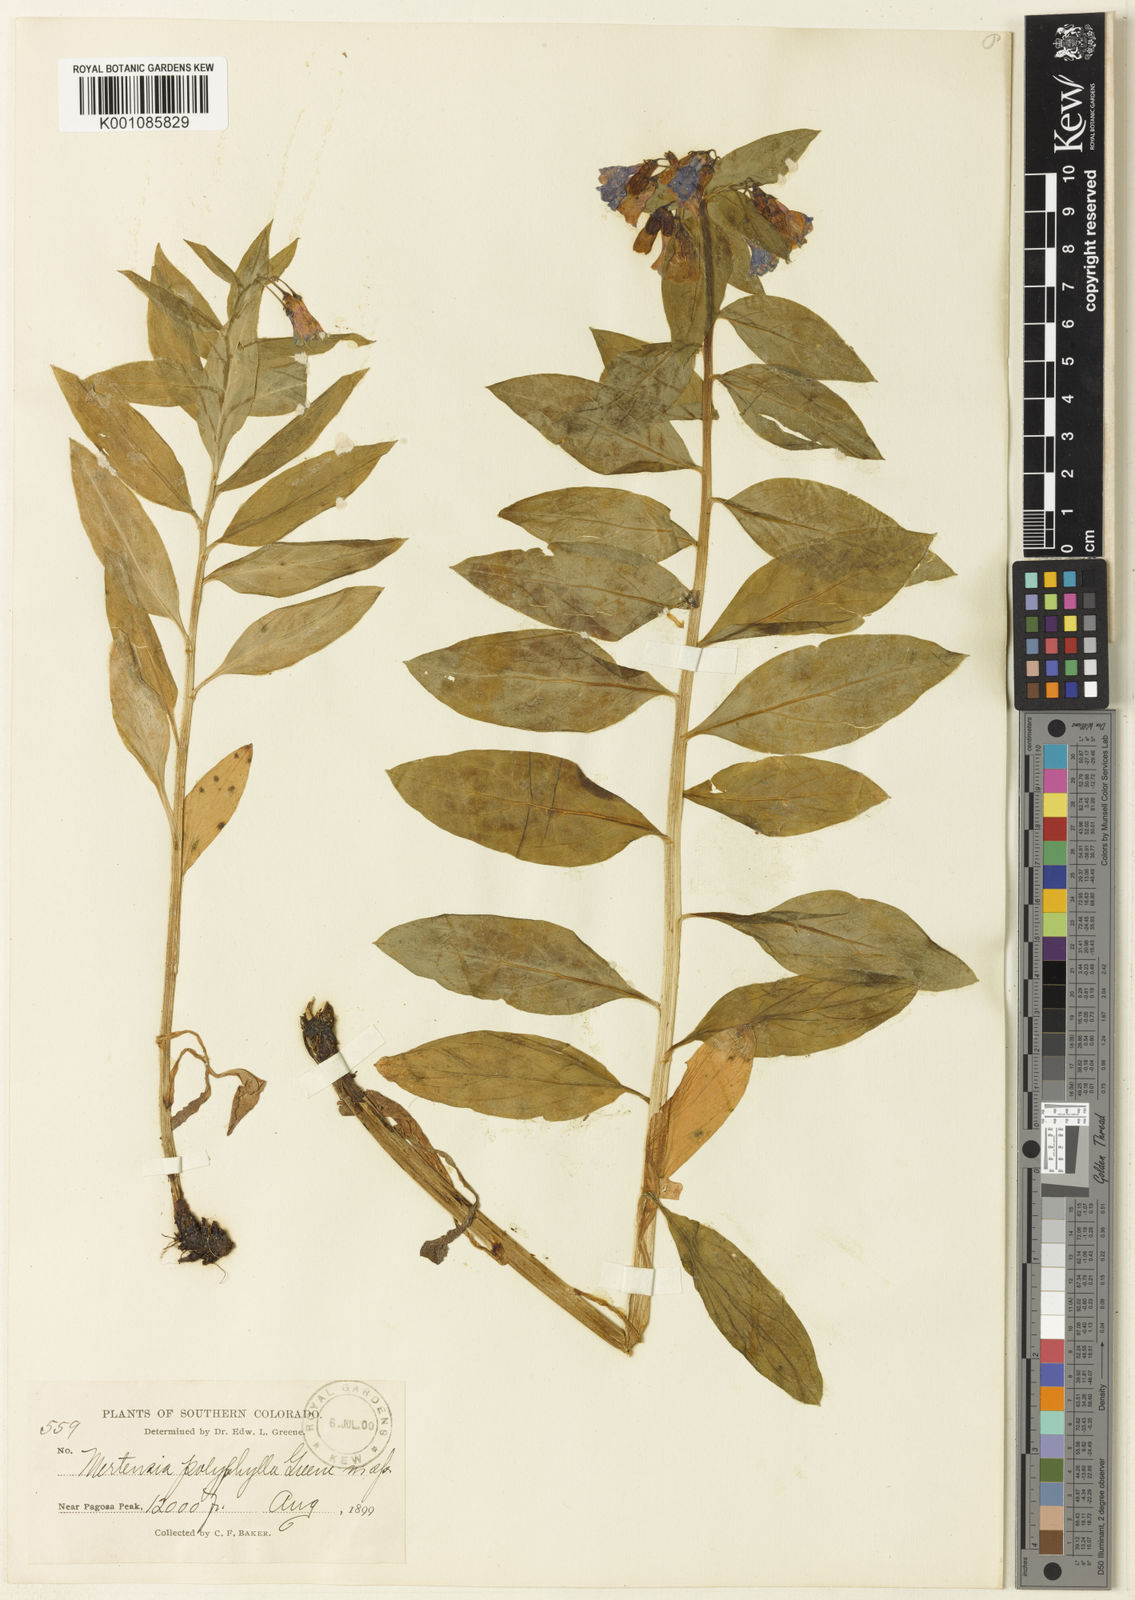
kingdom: Plantae
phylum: Tracheophyta
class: Magnoliopsida
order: Boraginales
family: Boraginaceae
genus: Mertensia
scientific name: Mertensia ciliata
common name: Tall chiming-bells
